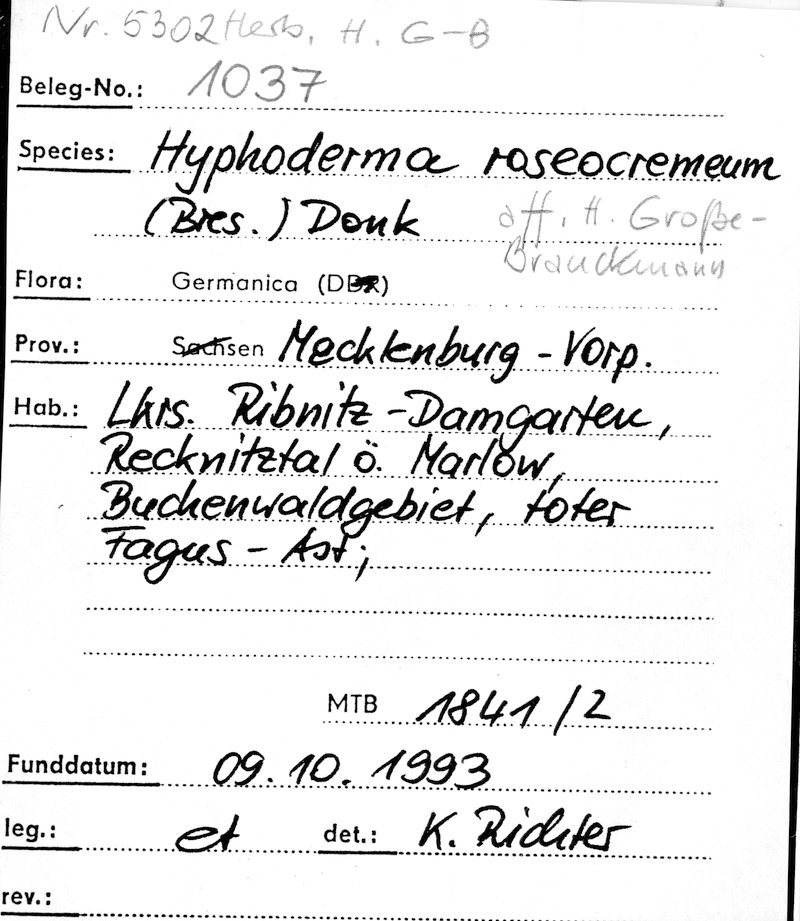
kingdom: Plantae
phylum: Tracheophyta
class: Magnoliopsida
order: Fagales
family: Fagaceae
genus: Fagus
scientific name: Fagus sylvatica
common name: Beech
